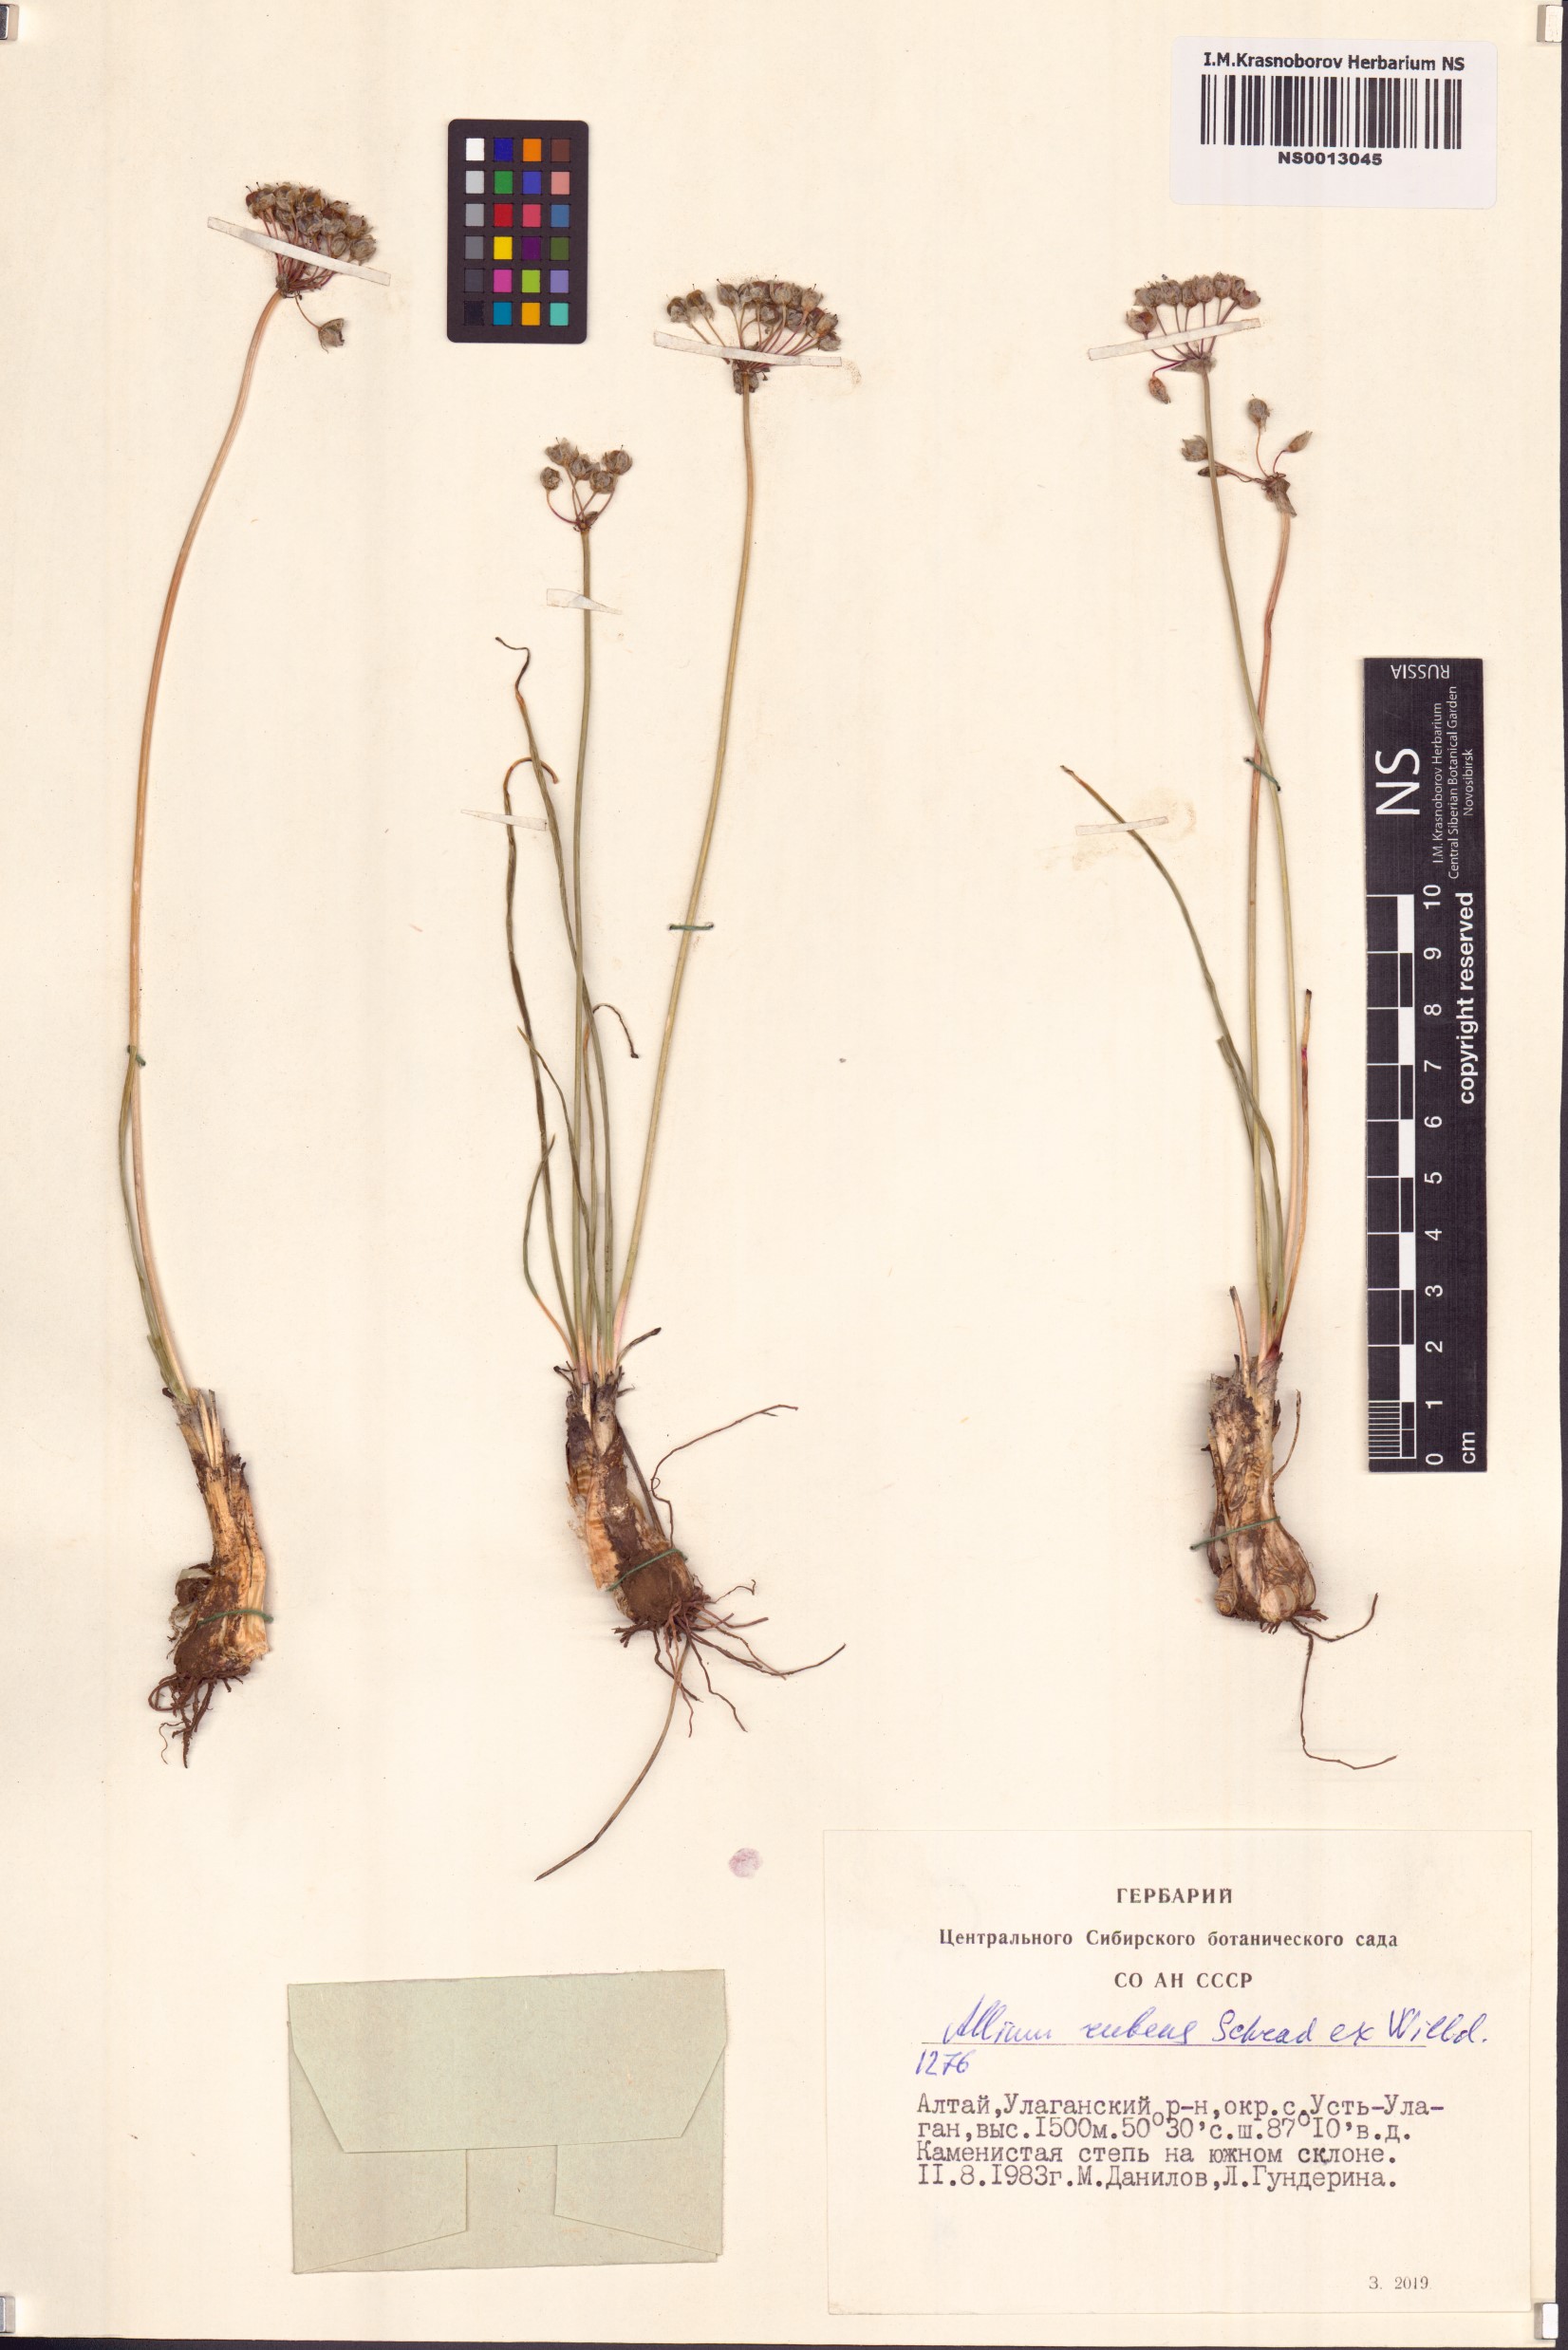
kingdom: Plantae
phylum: Tracheophyta
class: Liliopsida
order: Asparagales
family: Amaryllidaceae
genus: Allium
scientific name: Allium rubens
